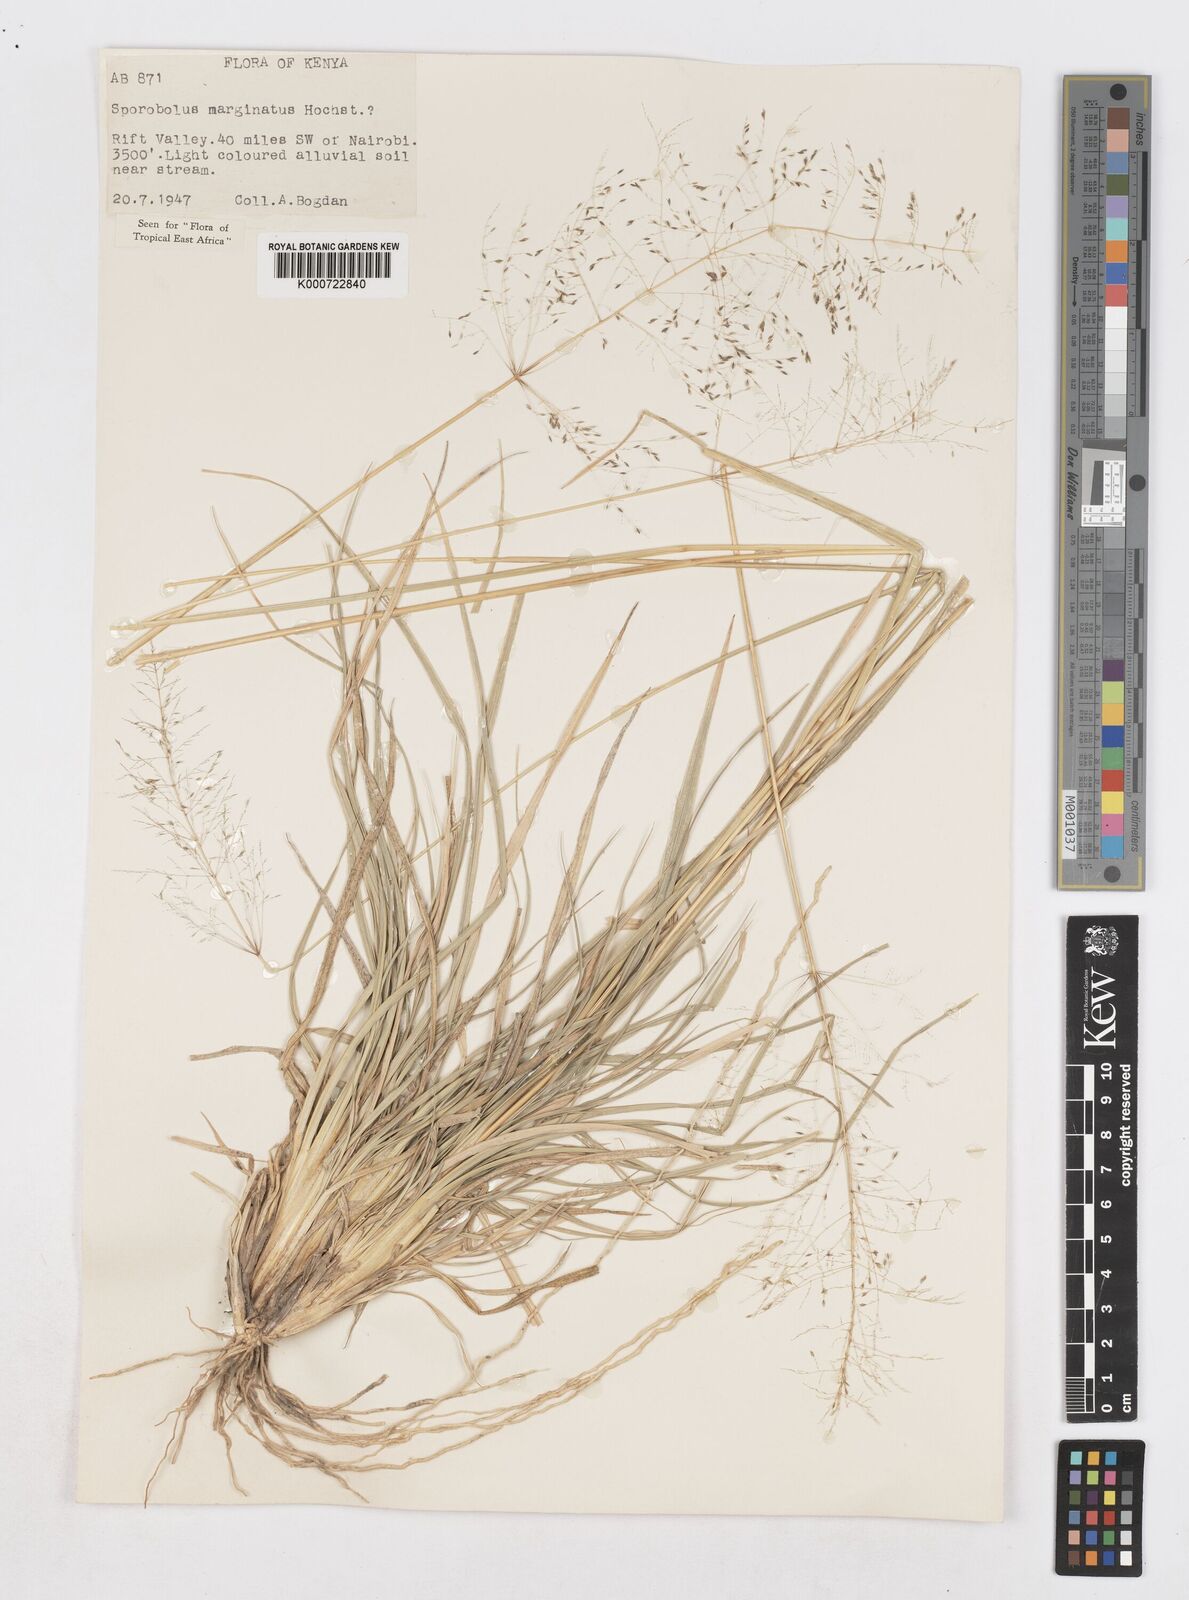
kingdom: Plantae
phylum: Tracheophyta
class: Liliopsida
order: Poales
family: Poaceae
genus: Sporobolus
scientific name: Sporobolus ioclados
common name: Pan dropseed
